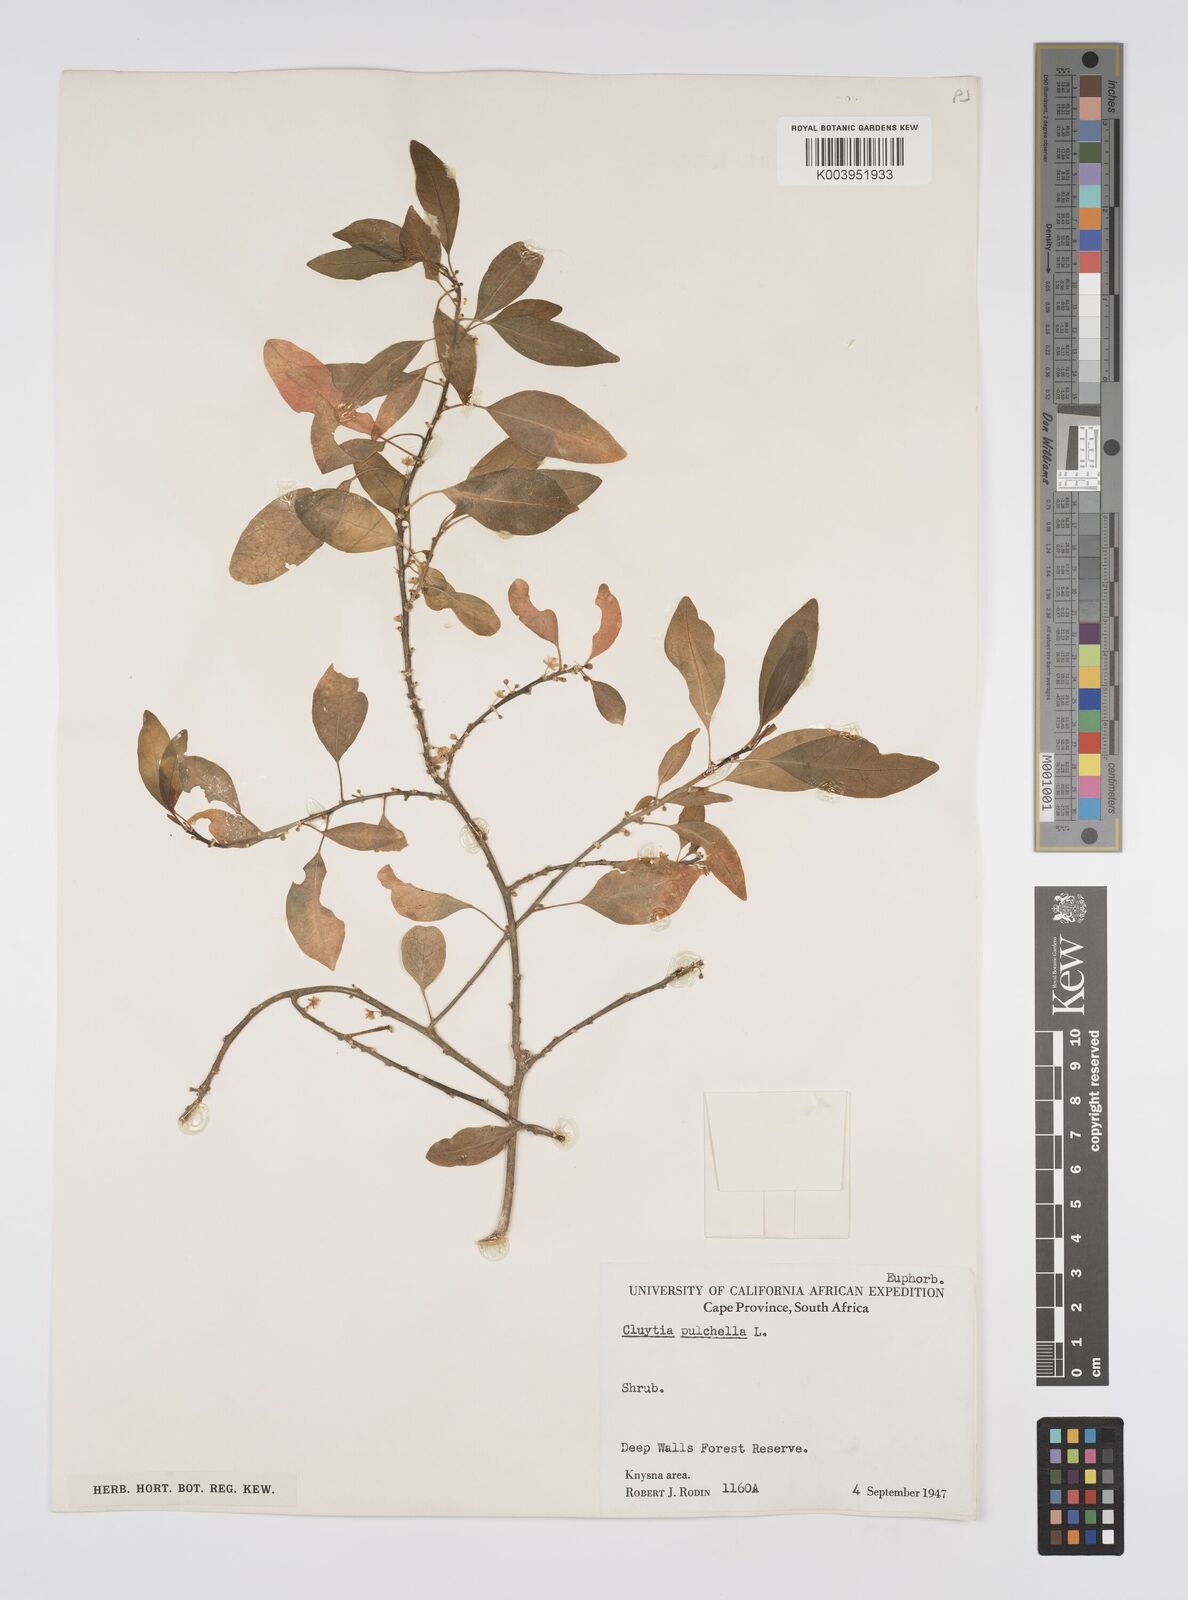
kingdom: Plantae
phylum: Tracheophyta
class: Magnoliopsida
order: Malpighiales
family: Peraceae
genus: Clutia
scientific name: Clutia pulchella
